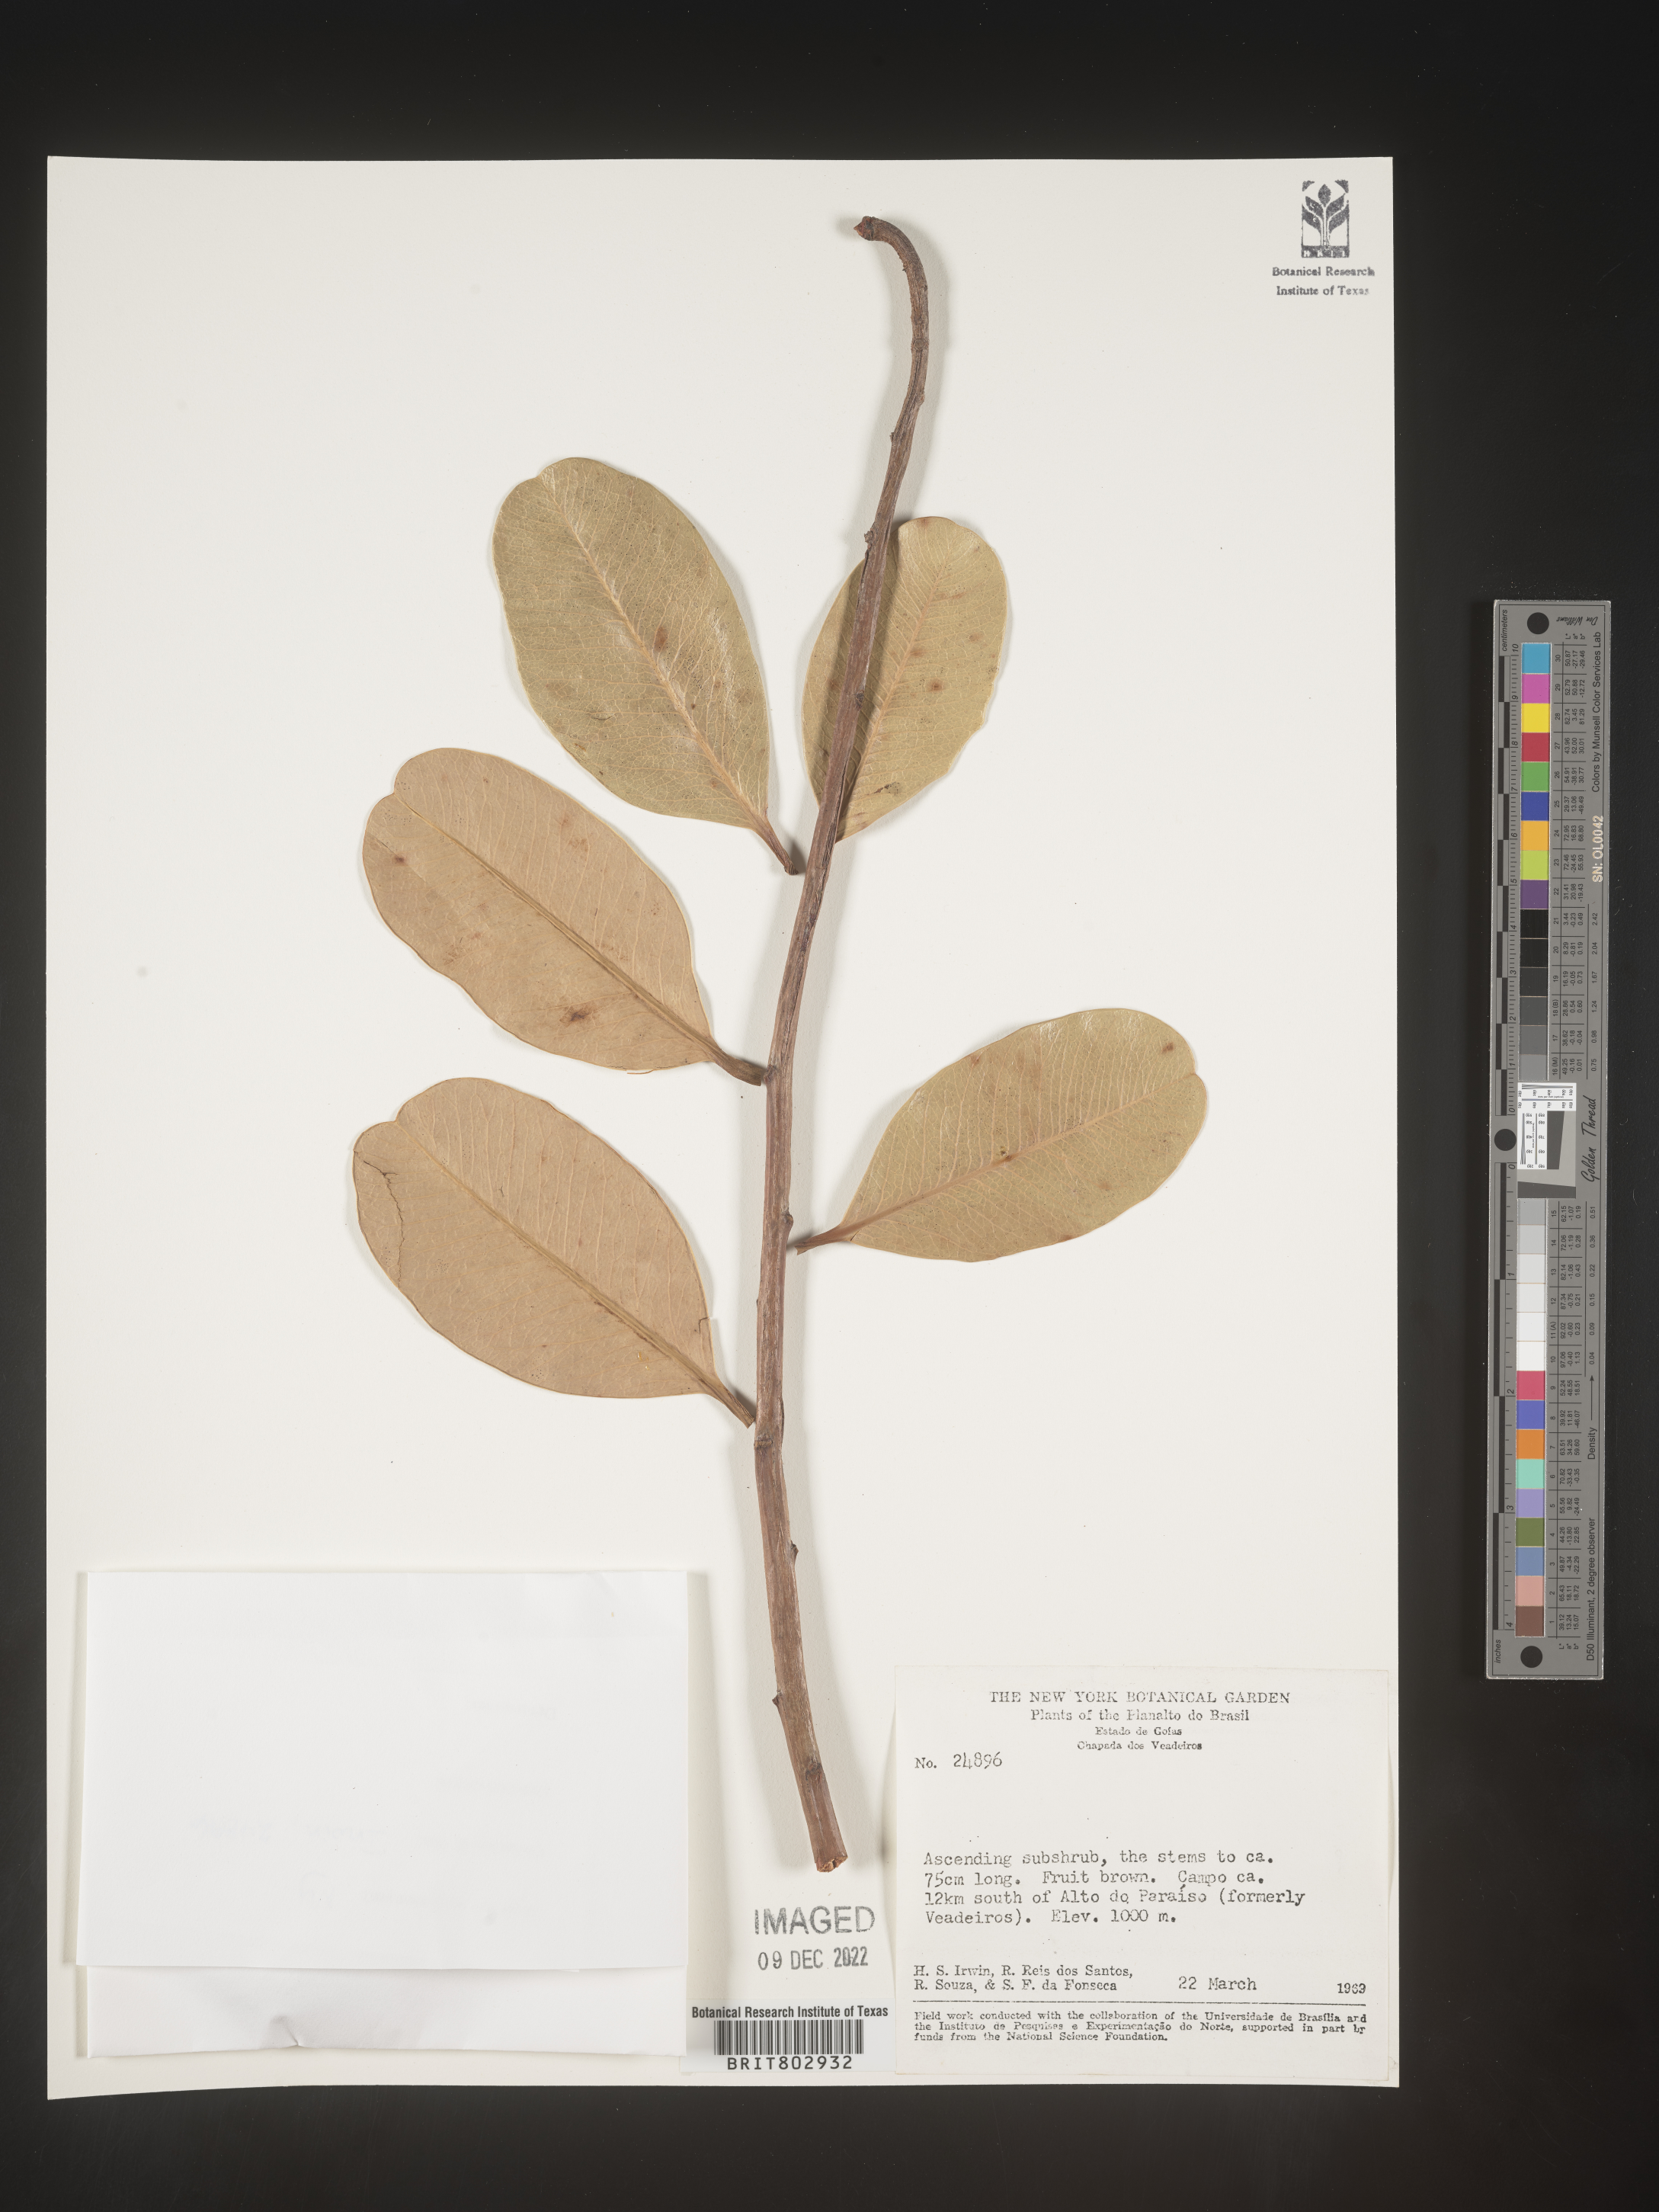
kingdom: Plantae
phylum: Tracheophyta
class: Magnoliopsida
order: Malpighiales
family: Calophyllaceae
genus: Kielmeyera
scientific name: Kielmeyera
